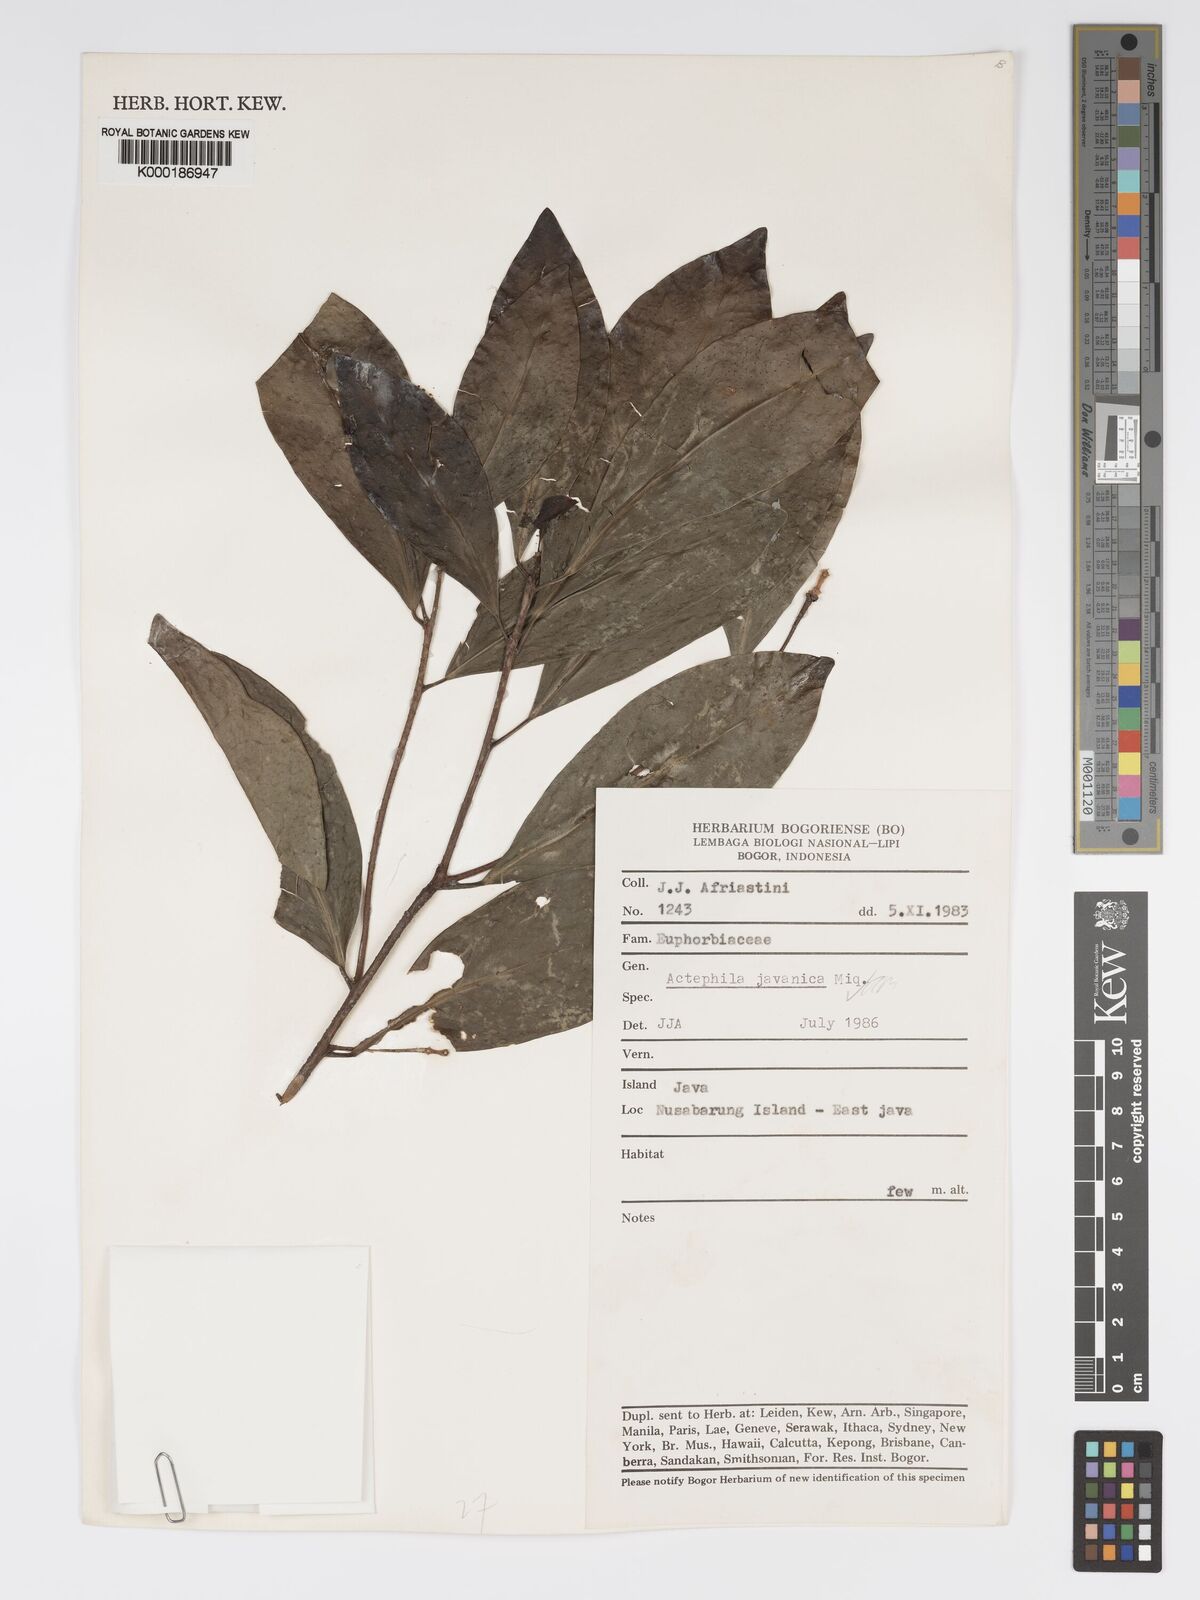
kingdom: Plantae
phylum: Tracheophyta
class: Magnoliopsida
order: Malpighiales
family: Phyllanthaceae
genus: Actephila
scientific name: Actephila
